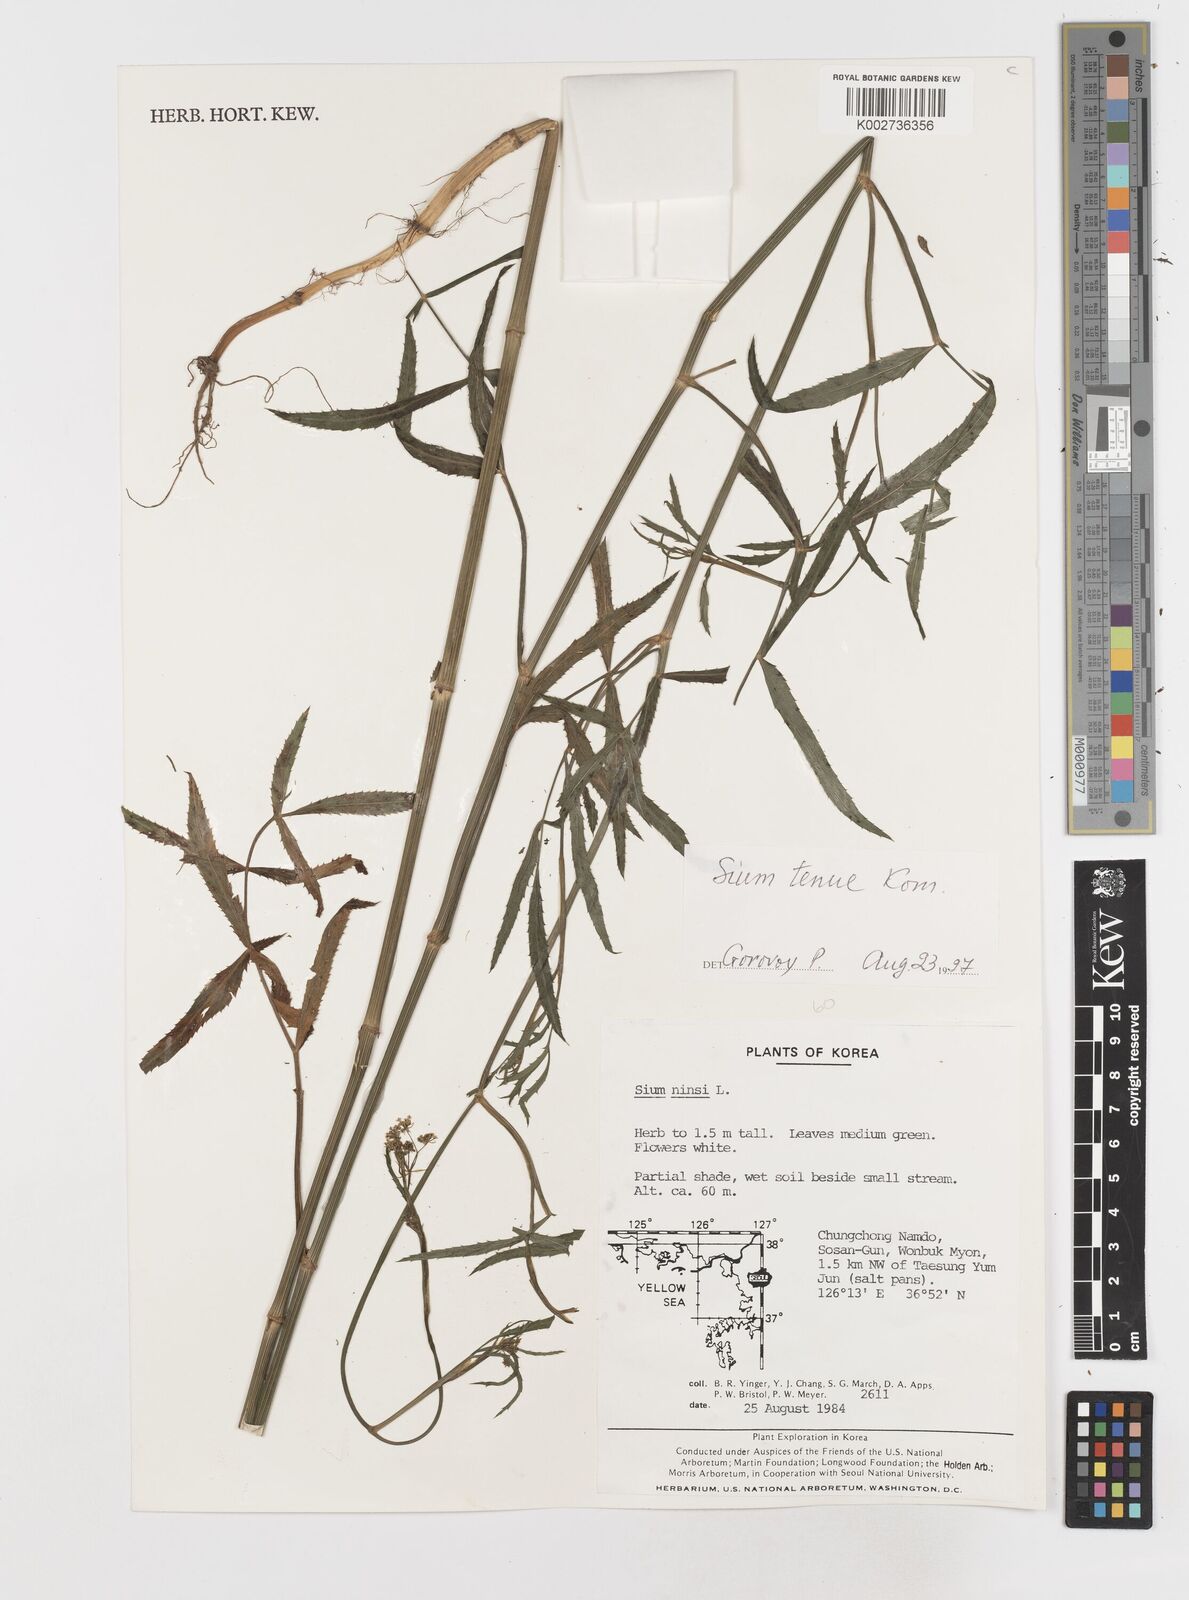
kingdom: Plantae
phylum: Tracheophyta
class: Magnoliopsida
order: Apiales
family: Apiaceae
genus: Sium
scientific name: Sium sisarum
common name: Skirret
